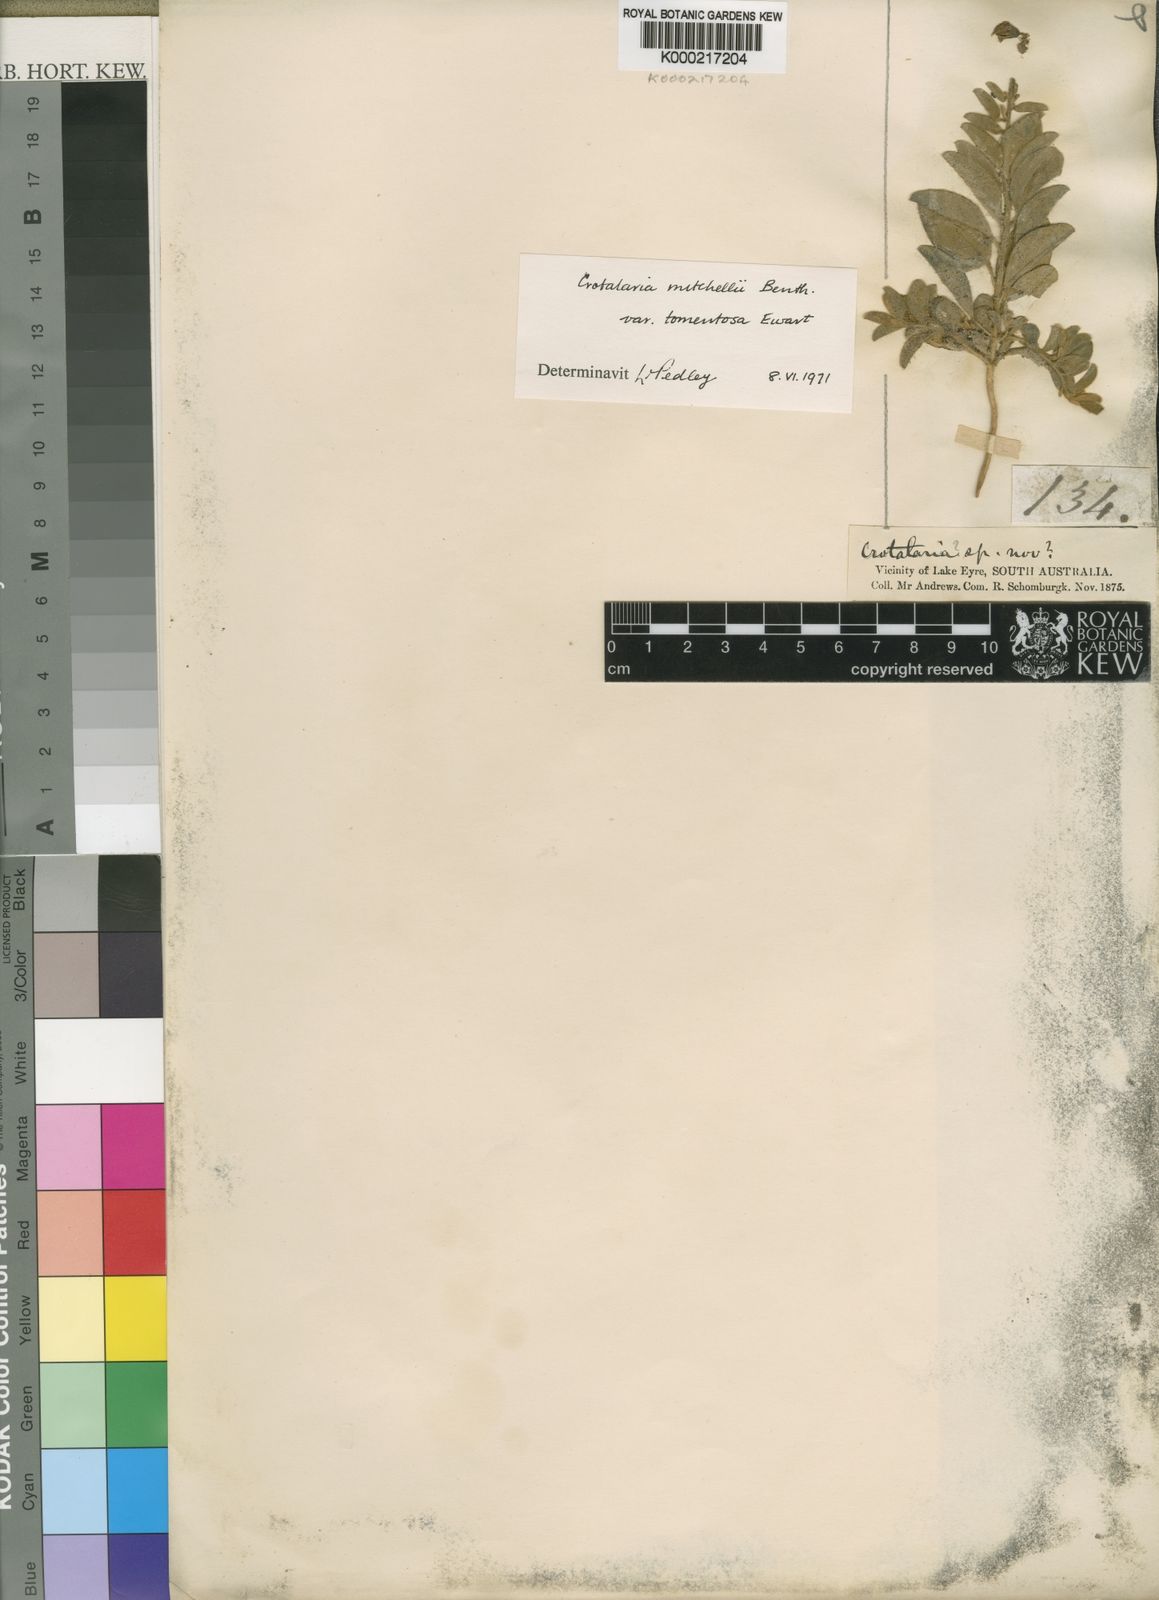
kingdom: Plantae
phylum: Tracheophyta
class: Magnoliopsida
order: Fabales
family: Fabaceae
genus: Crotalaria
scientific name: Crotalaria smithiana
